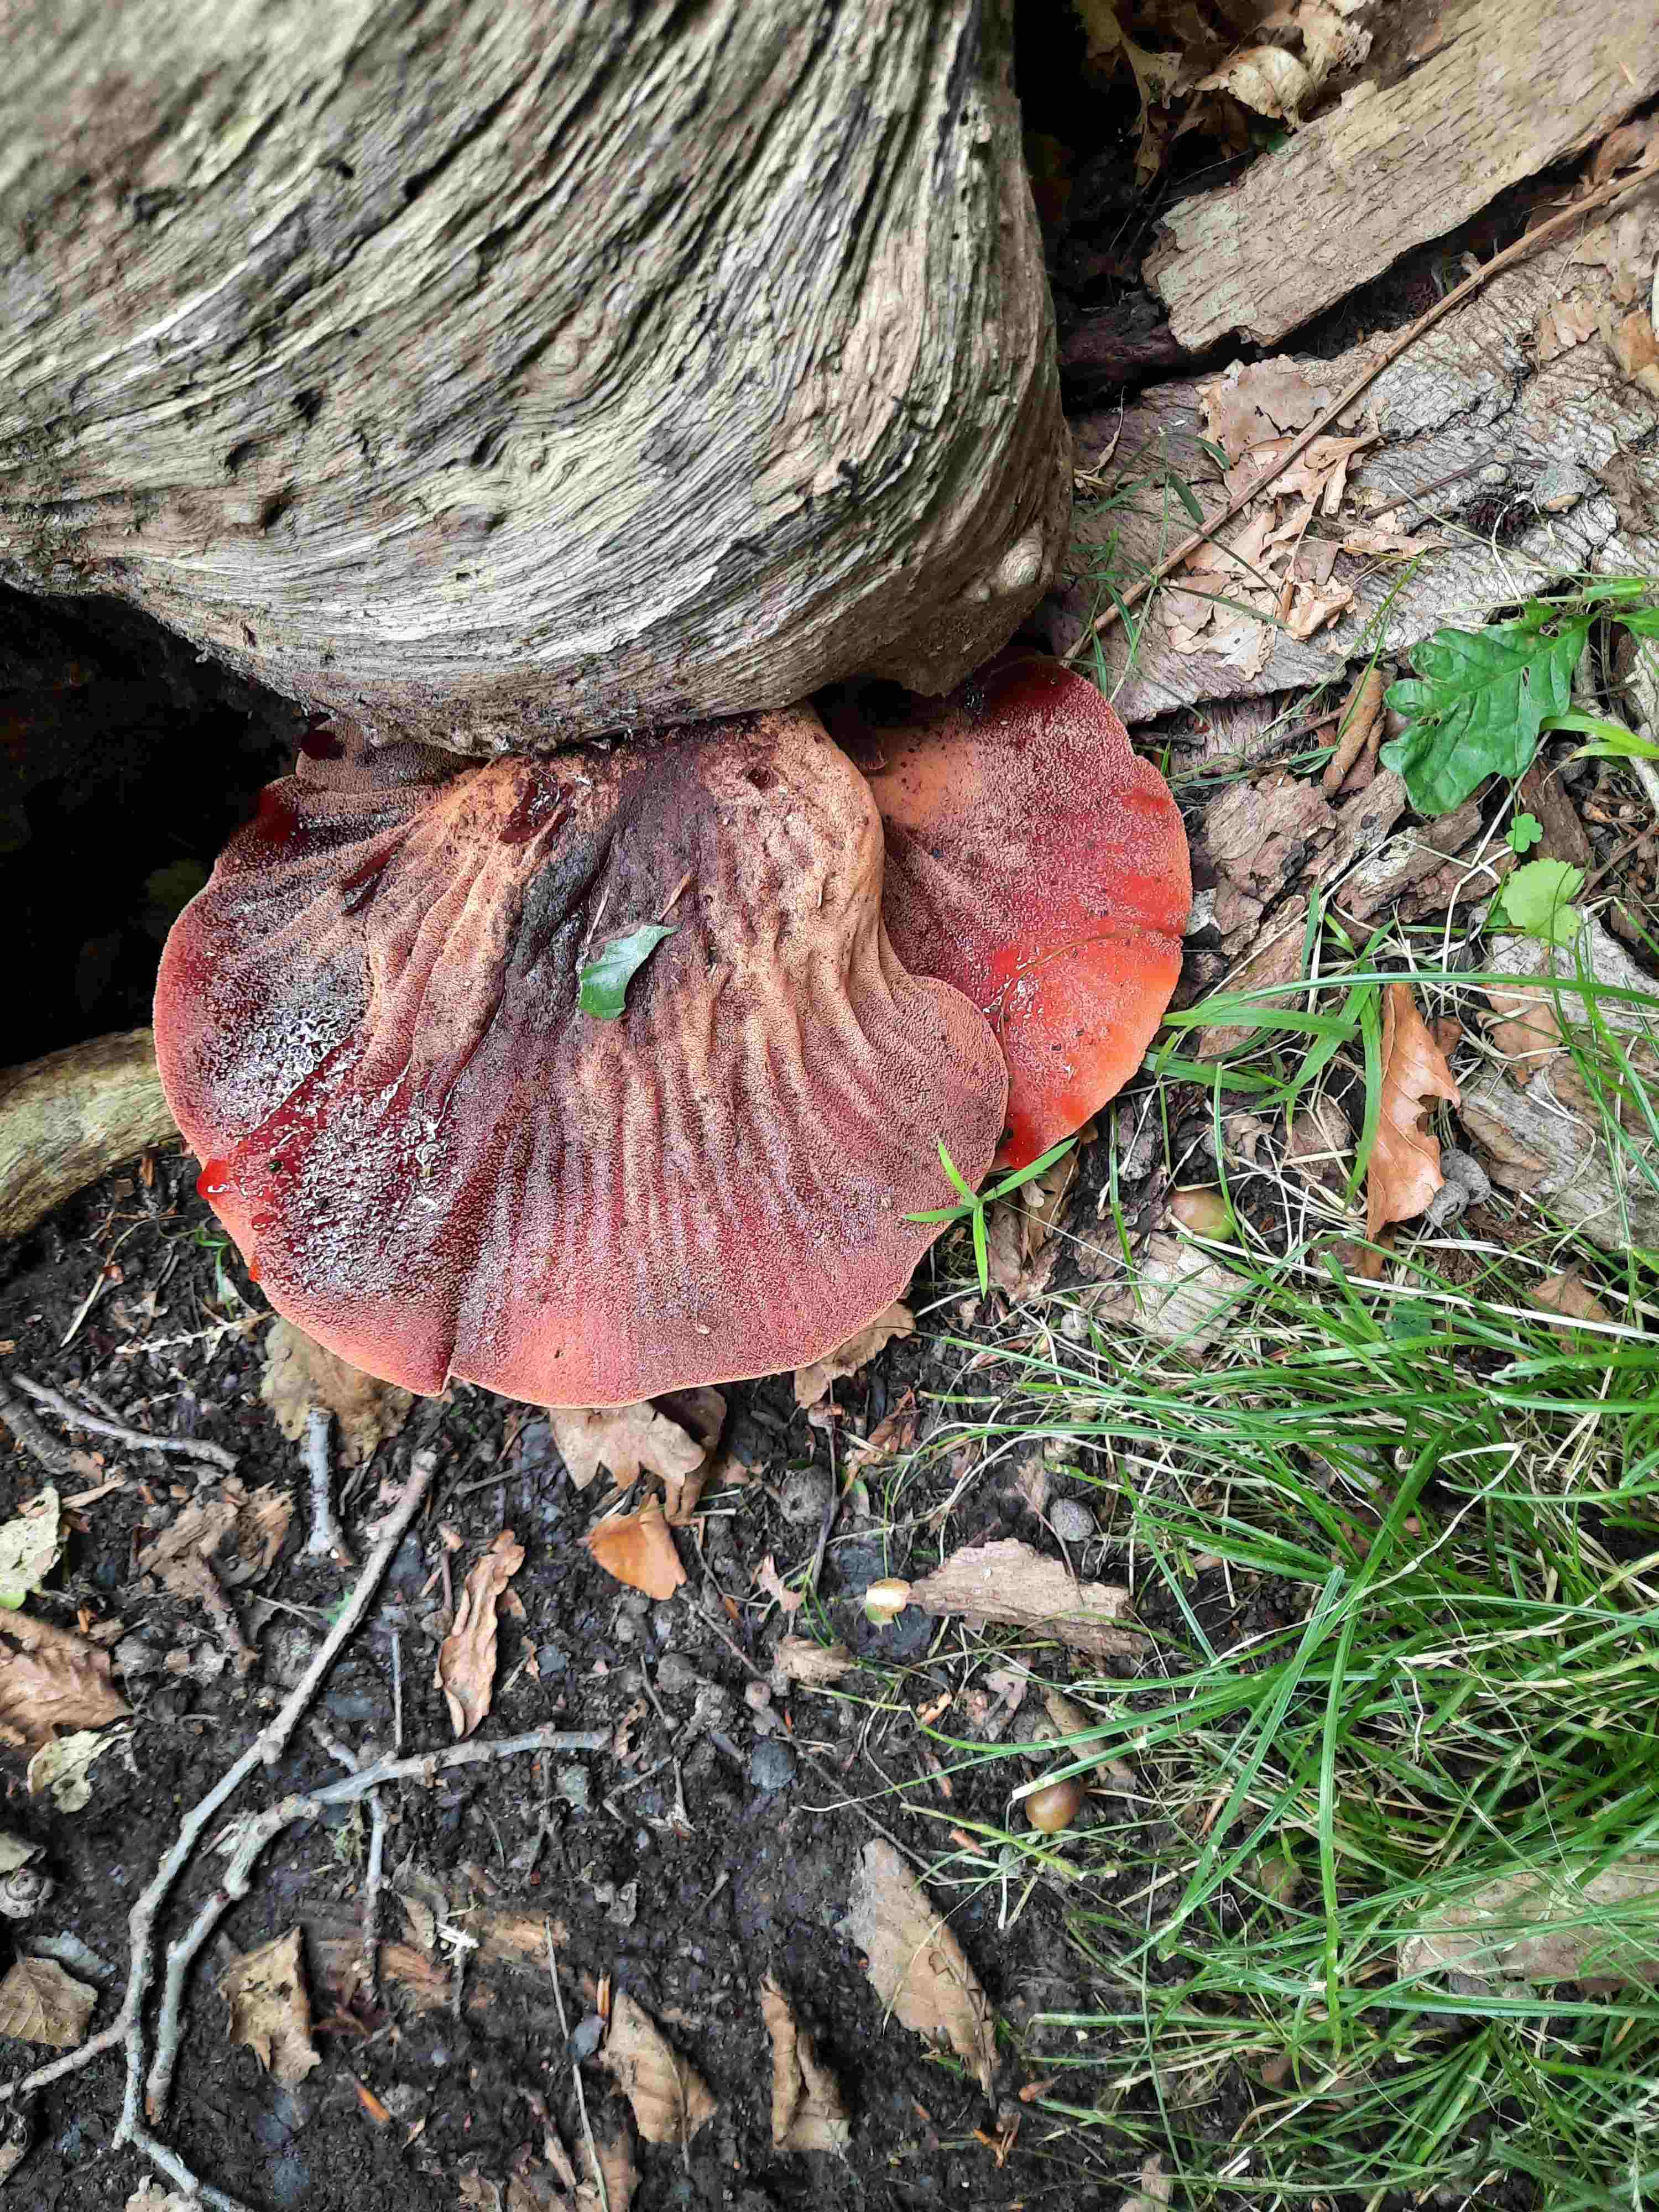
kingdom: Fungi
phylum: Basidiomycota
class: Agaricomycetes
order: Agaricales
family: Fistulinaceae
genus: Fistulina
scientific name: Fistulina hepatica
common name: oksetunge
